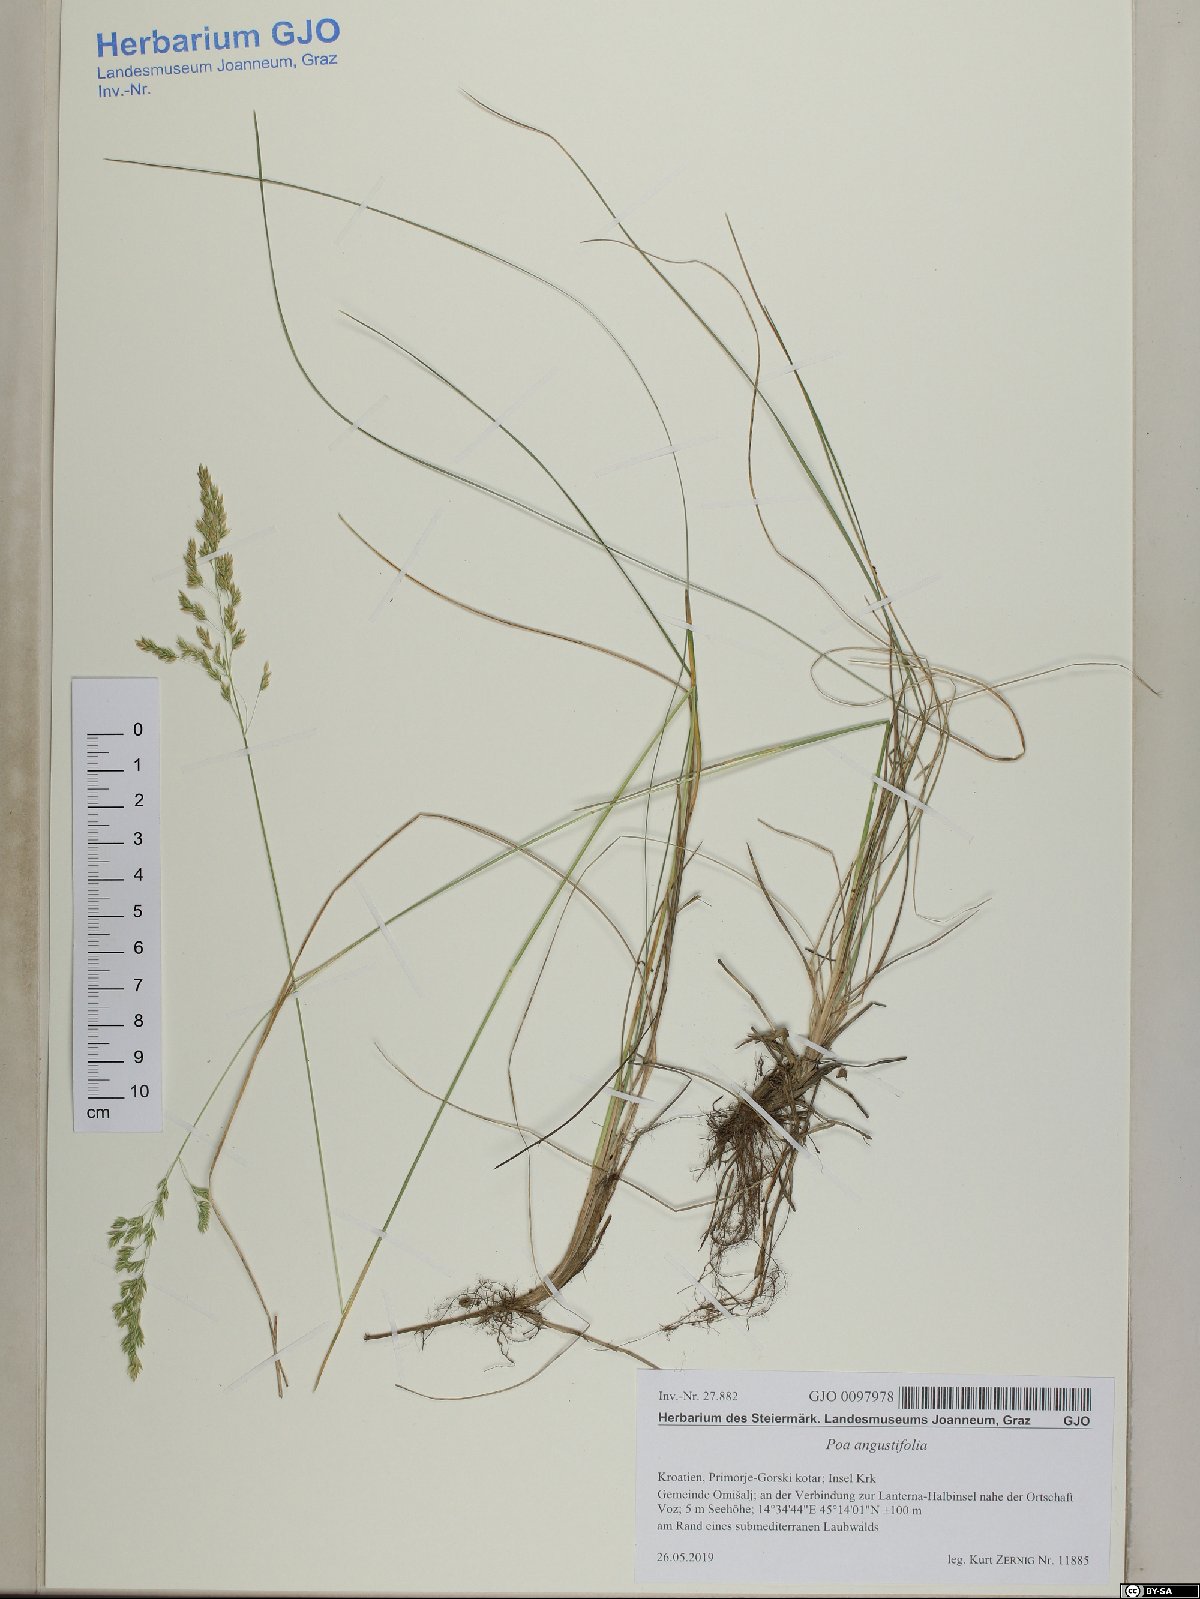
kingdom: Plantae
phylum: Tracheophyta
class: Liliopsida
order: Poales
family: Poaceae
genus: Poa
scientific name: Poa angustifolia
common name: Narrow-leaved meadow-grass
